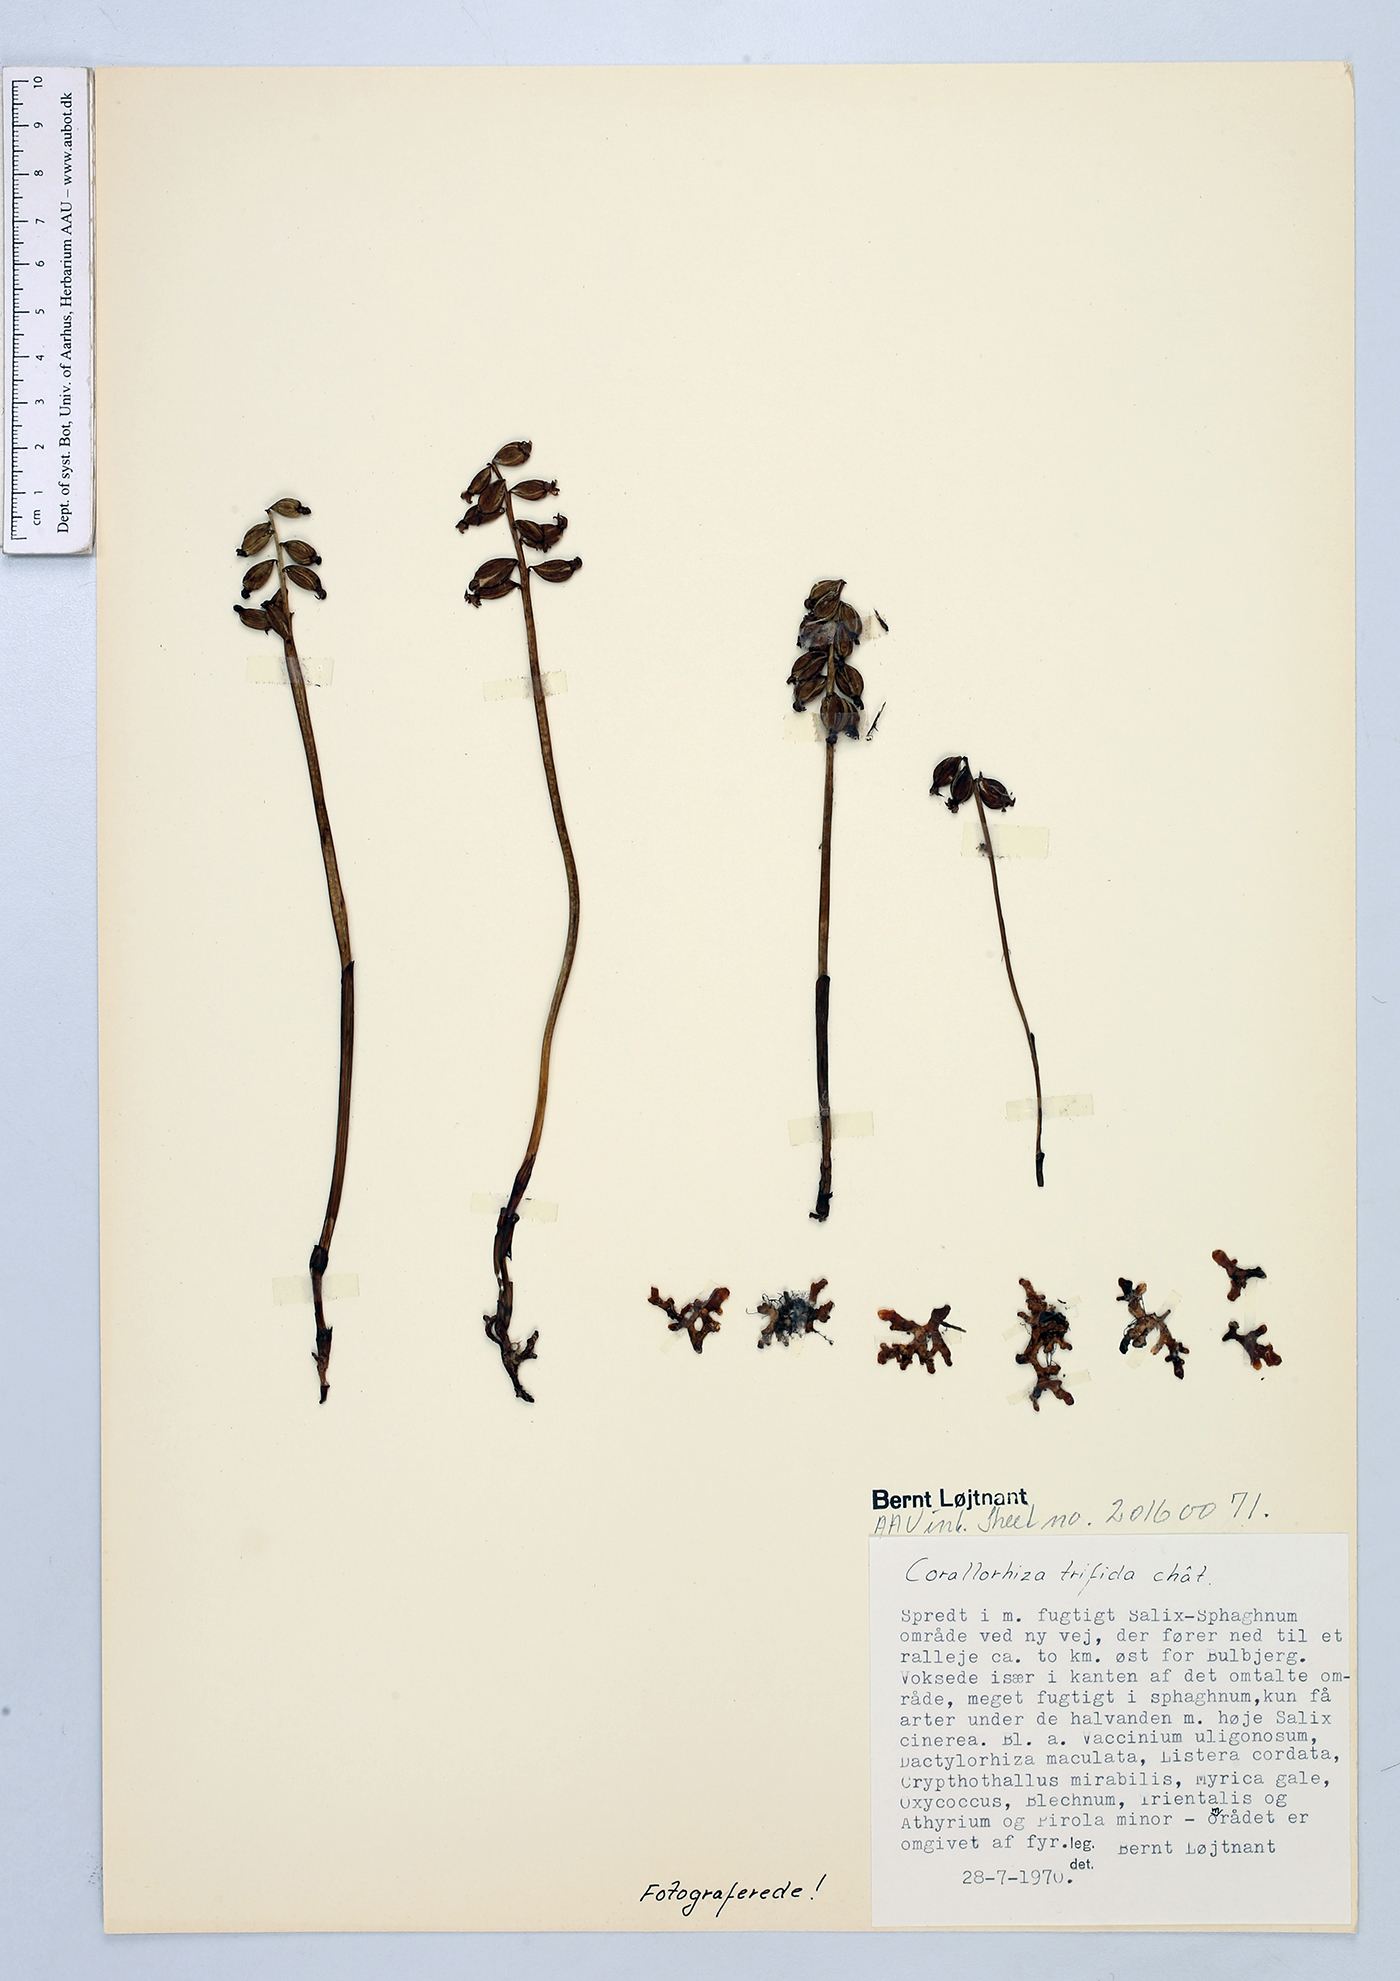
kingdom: Plantae
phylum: Tracheophyta
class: Liliopsida
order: Asparagales
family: Orchidaceae
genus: Corallorhiza
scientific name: Corallorhiza trifida
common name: Yellow coralroot
